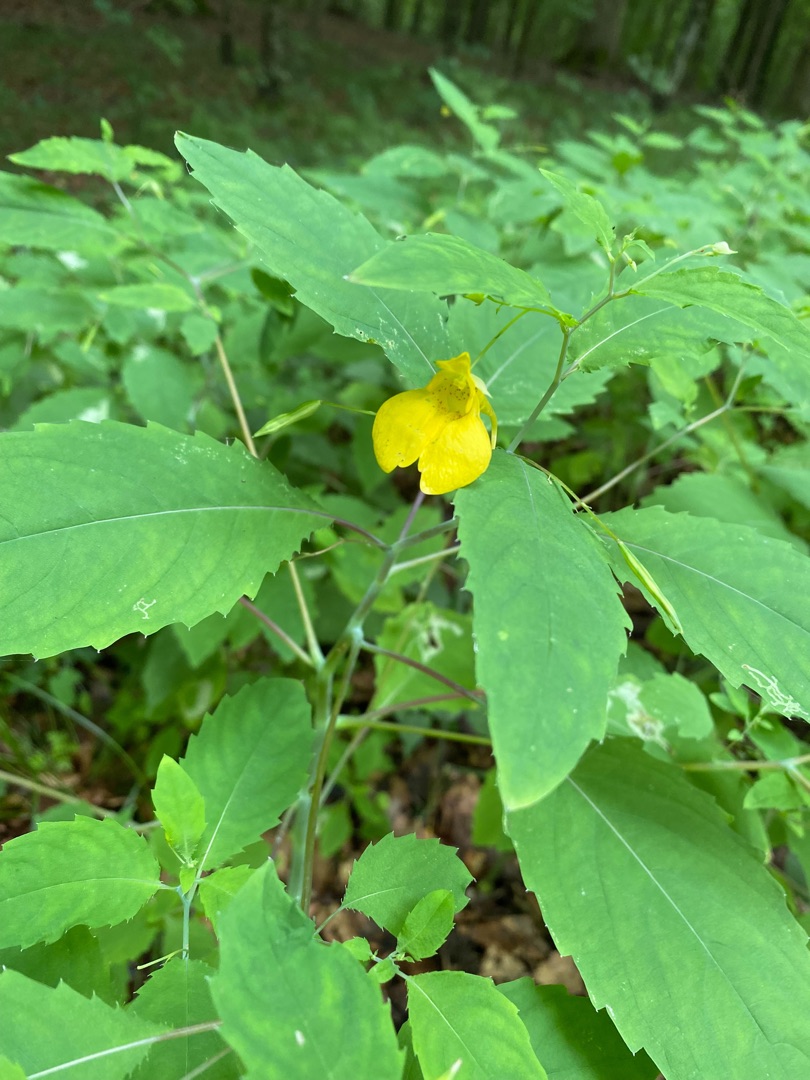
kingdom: Plantae
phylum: Tracheophyta
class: Magnoliopsida
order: Ericales
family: Balsaminaceae
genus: Impatiens
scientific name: Impatiens noli-tangere
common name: Spring-balsamin
